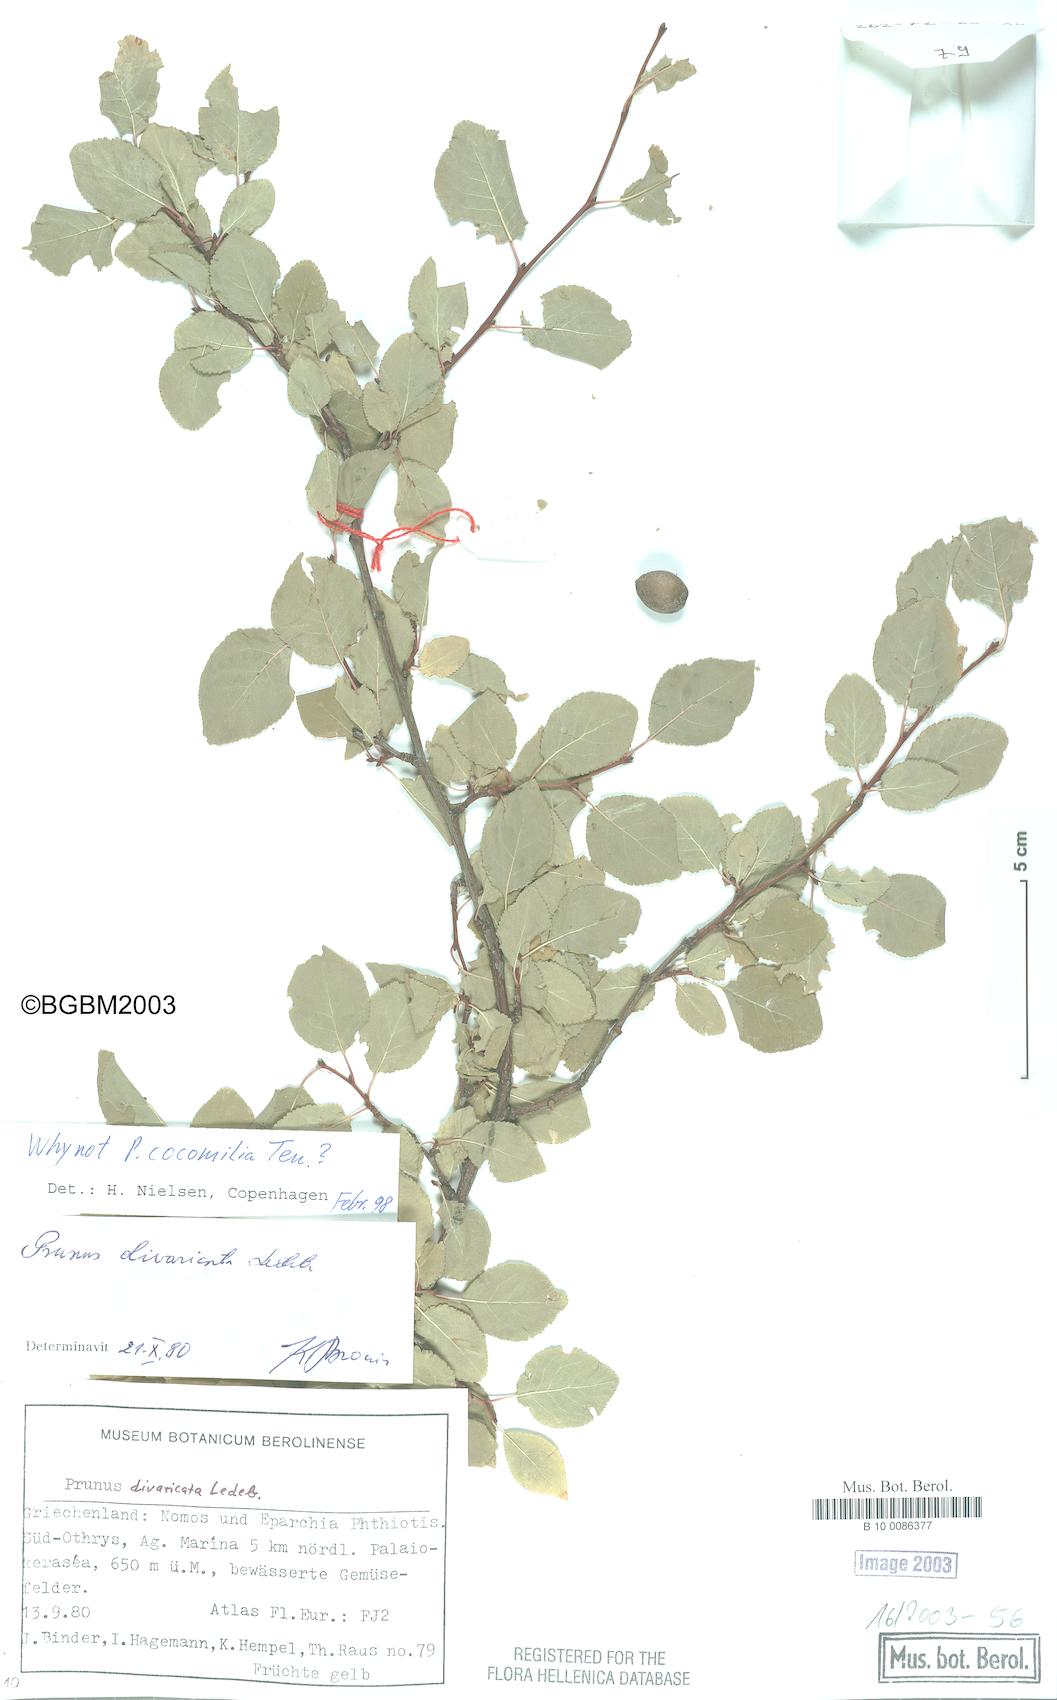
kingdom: Plantae
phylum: Tracheophyta
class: Magnoliopsida
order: Rosales
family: Rosaceae
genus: Prunus
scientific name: Prunus cocomilia
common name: Italian plum
